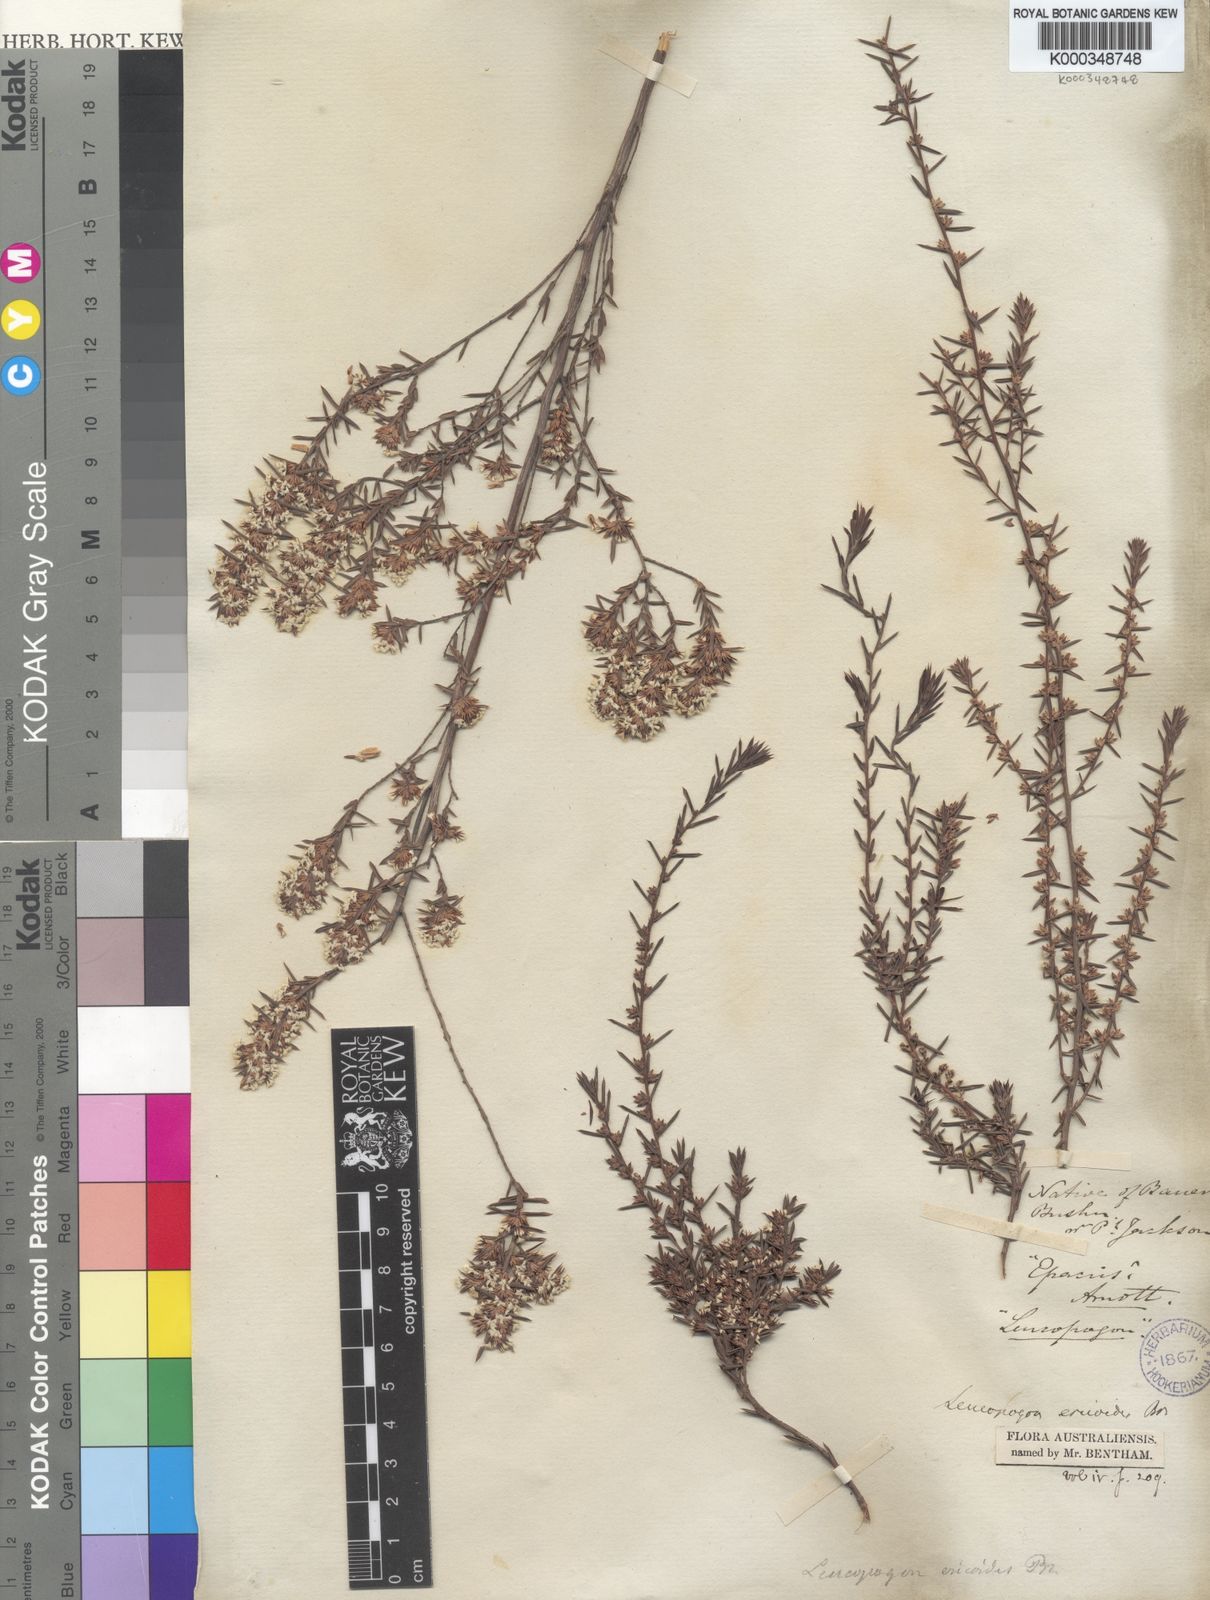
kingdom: Plantae
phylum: Tracheophyta
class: Magnoliopsida
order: Ericales
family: Ericaceae
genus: Styphelia
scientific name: Styphelia ericoides
